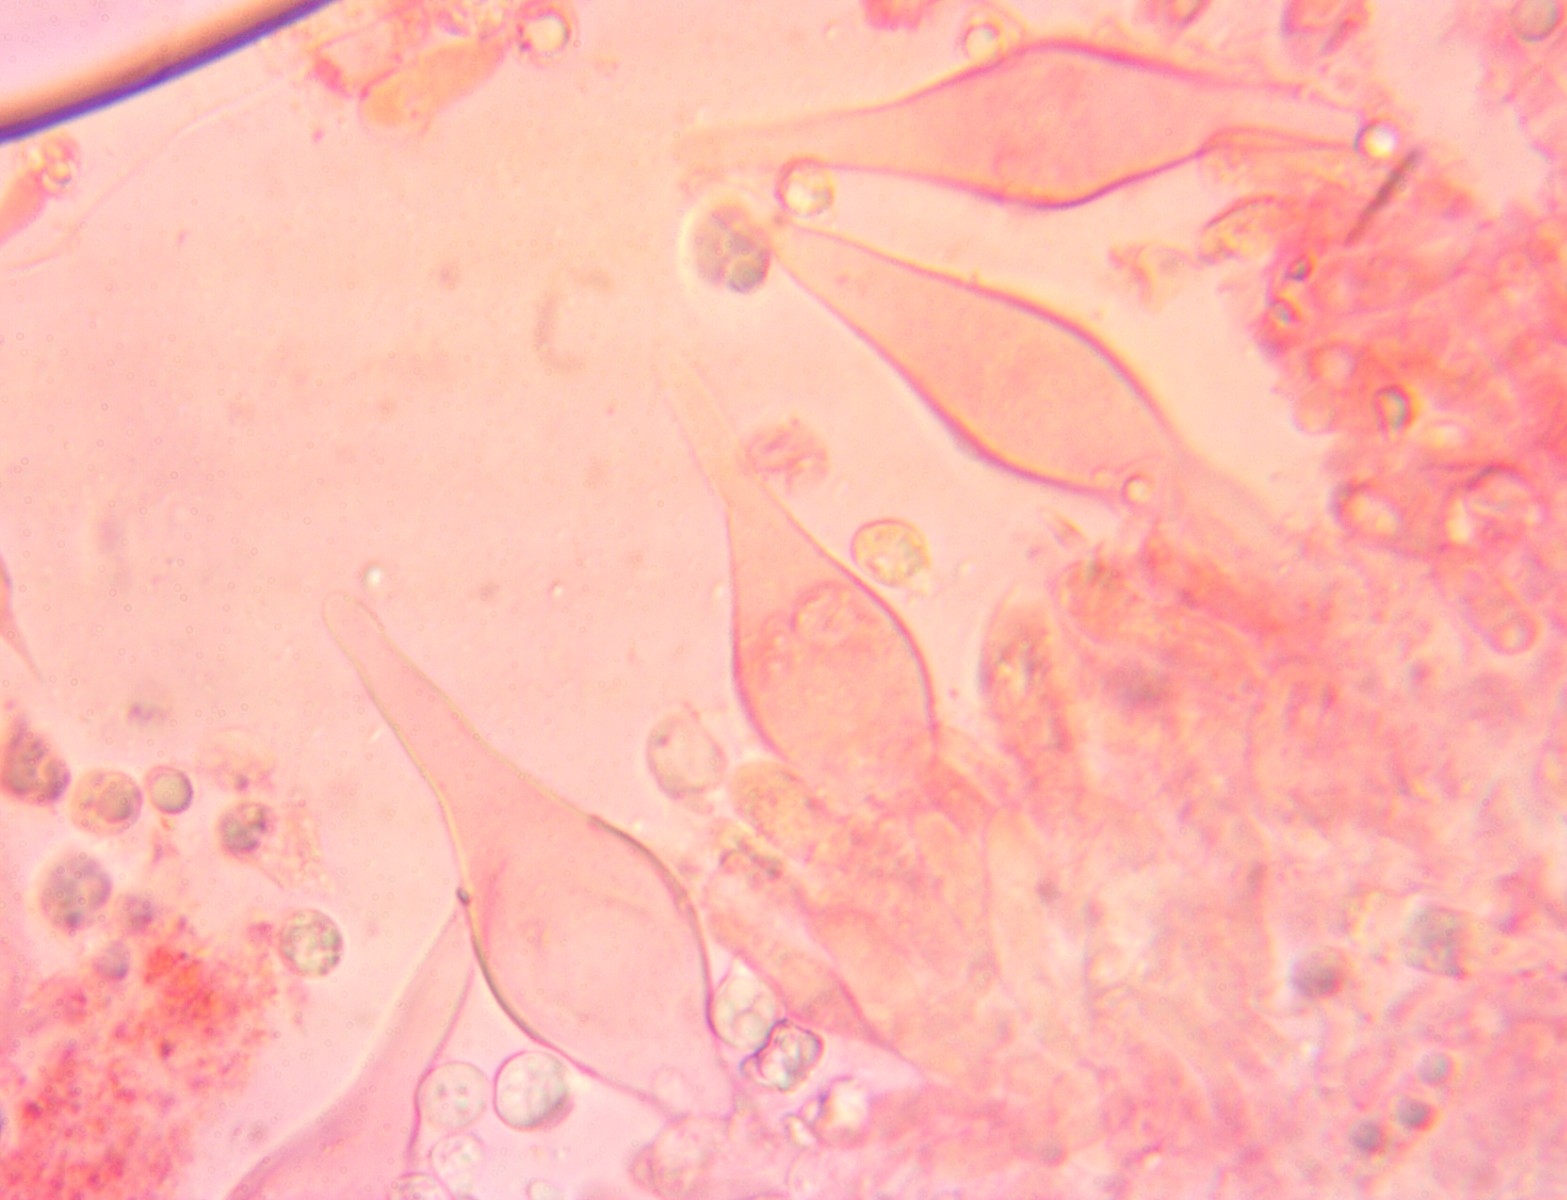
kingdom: Fungi
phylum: Basidiomycota
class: Agaricomycetes
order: Agaricales
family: Tricholomataceae
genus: Mycenella
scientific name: Mycenella salicina
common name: glatsporet dughat
